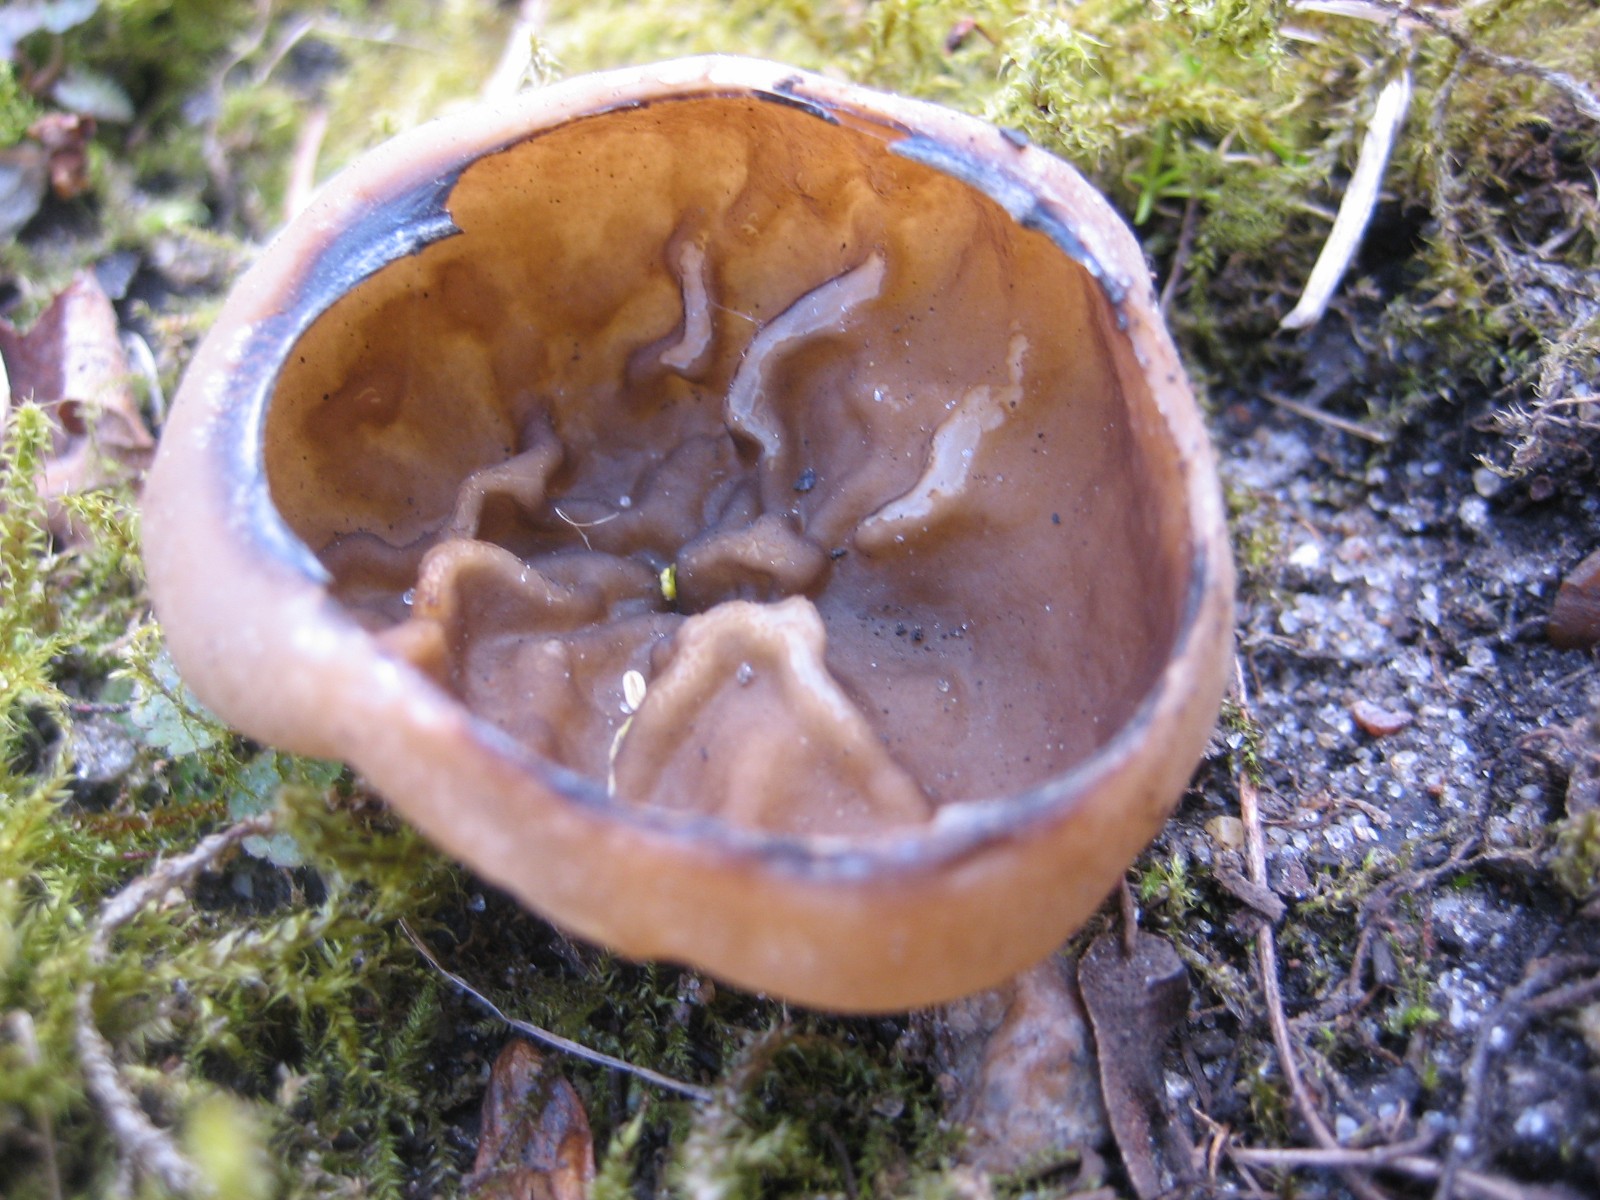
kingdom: Fungi
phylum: Ascomycota
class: Pezizomycetes
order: Pezizales
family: Morchellaceae
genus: Disciotis
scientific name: Disciotis venosa
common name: klor-bægermorkel
